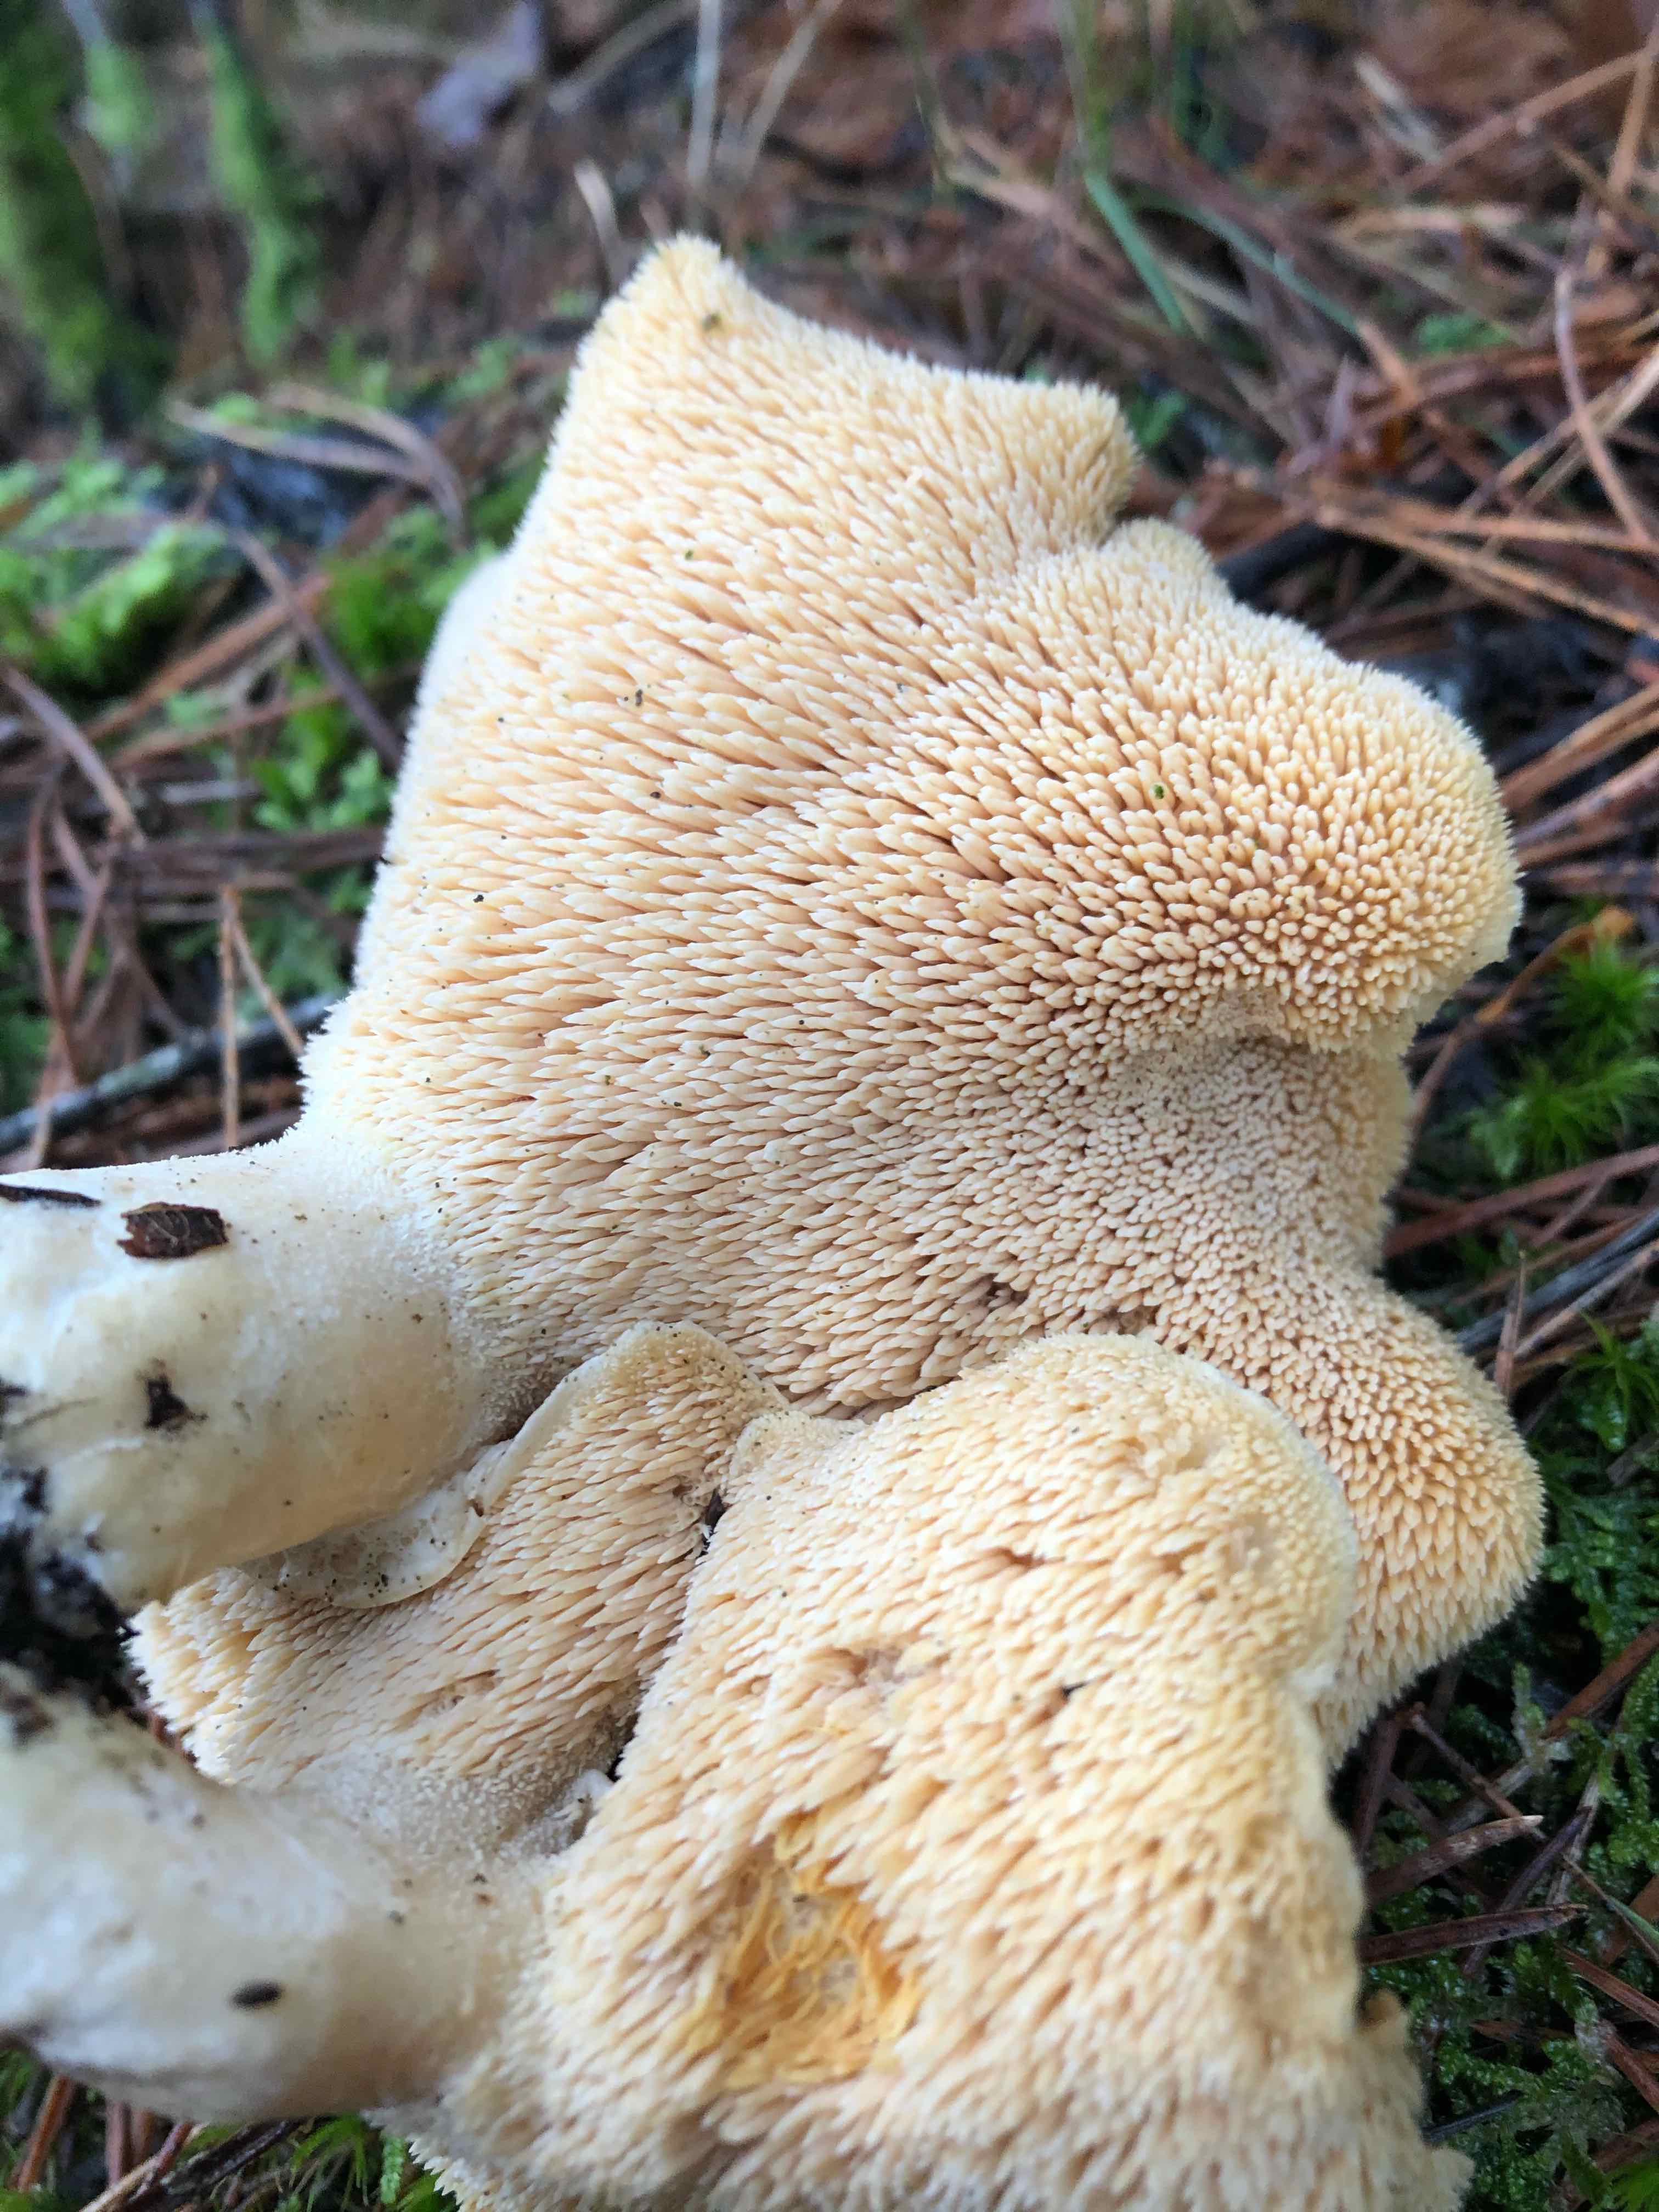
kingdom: Fungi
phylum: Basidiomycota
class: Agaricomycetes
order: Cantharellales
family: Hydnaceae
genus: Hydnum
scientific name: Hydnum repandum
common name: almindelig pigsvamp
